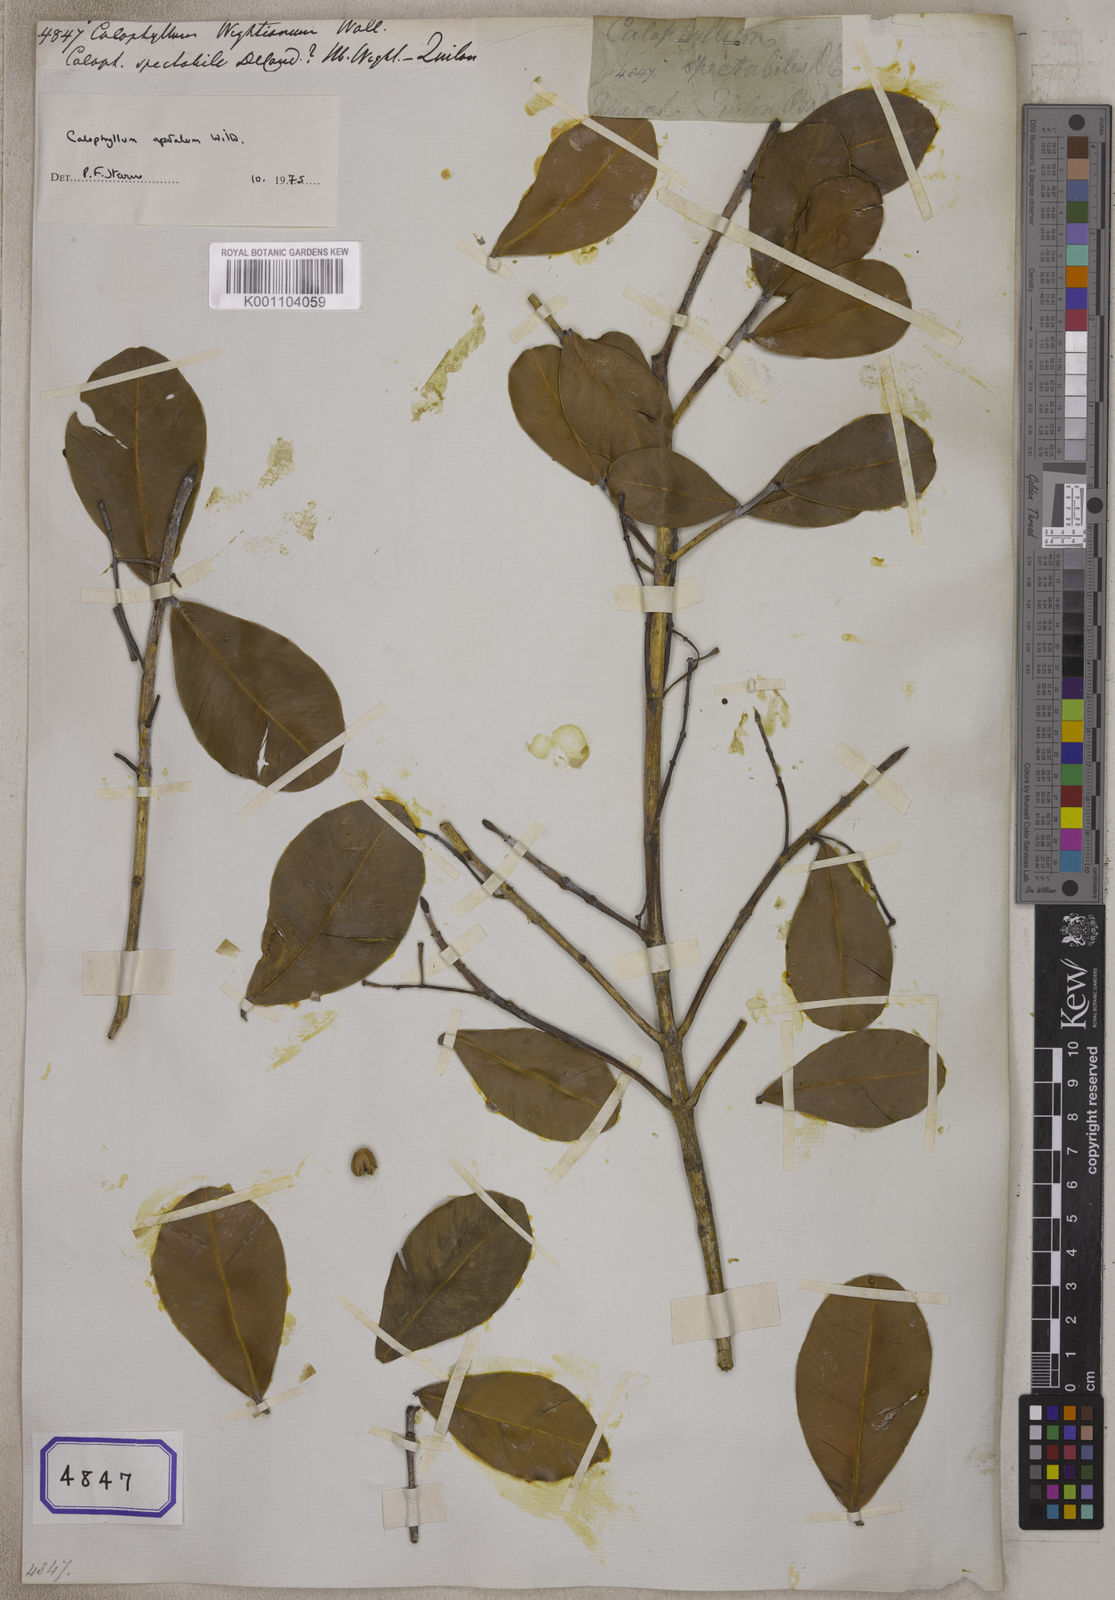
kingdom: Plantae
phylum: Tracheophyta
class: Magnoliopsida
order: Malpighiales
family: Calophyllaceae
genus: Calophyllum
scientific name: Calophyllum
